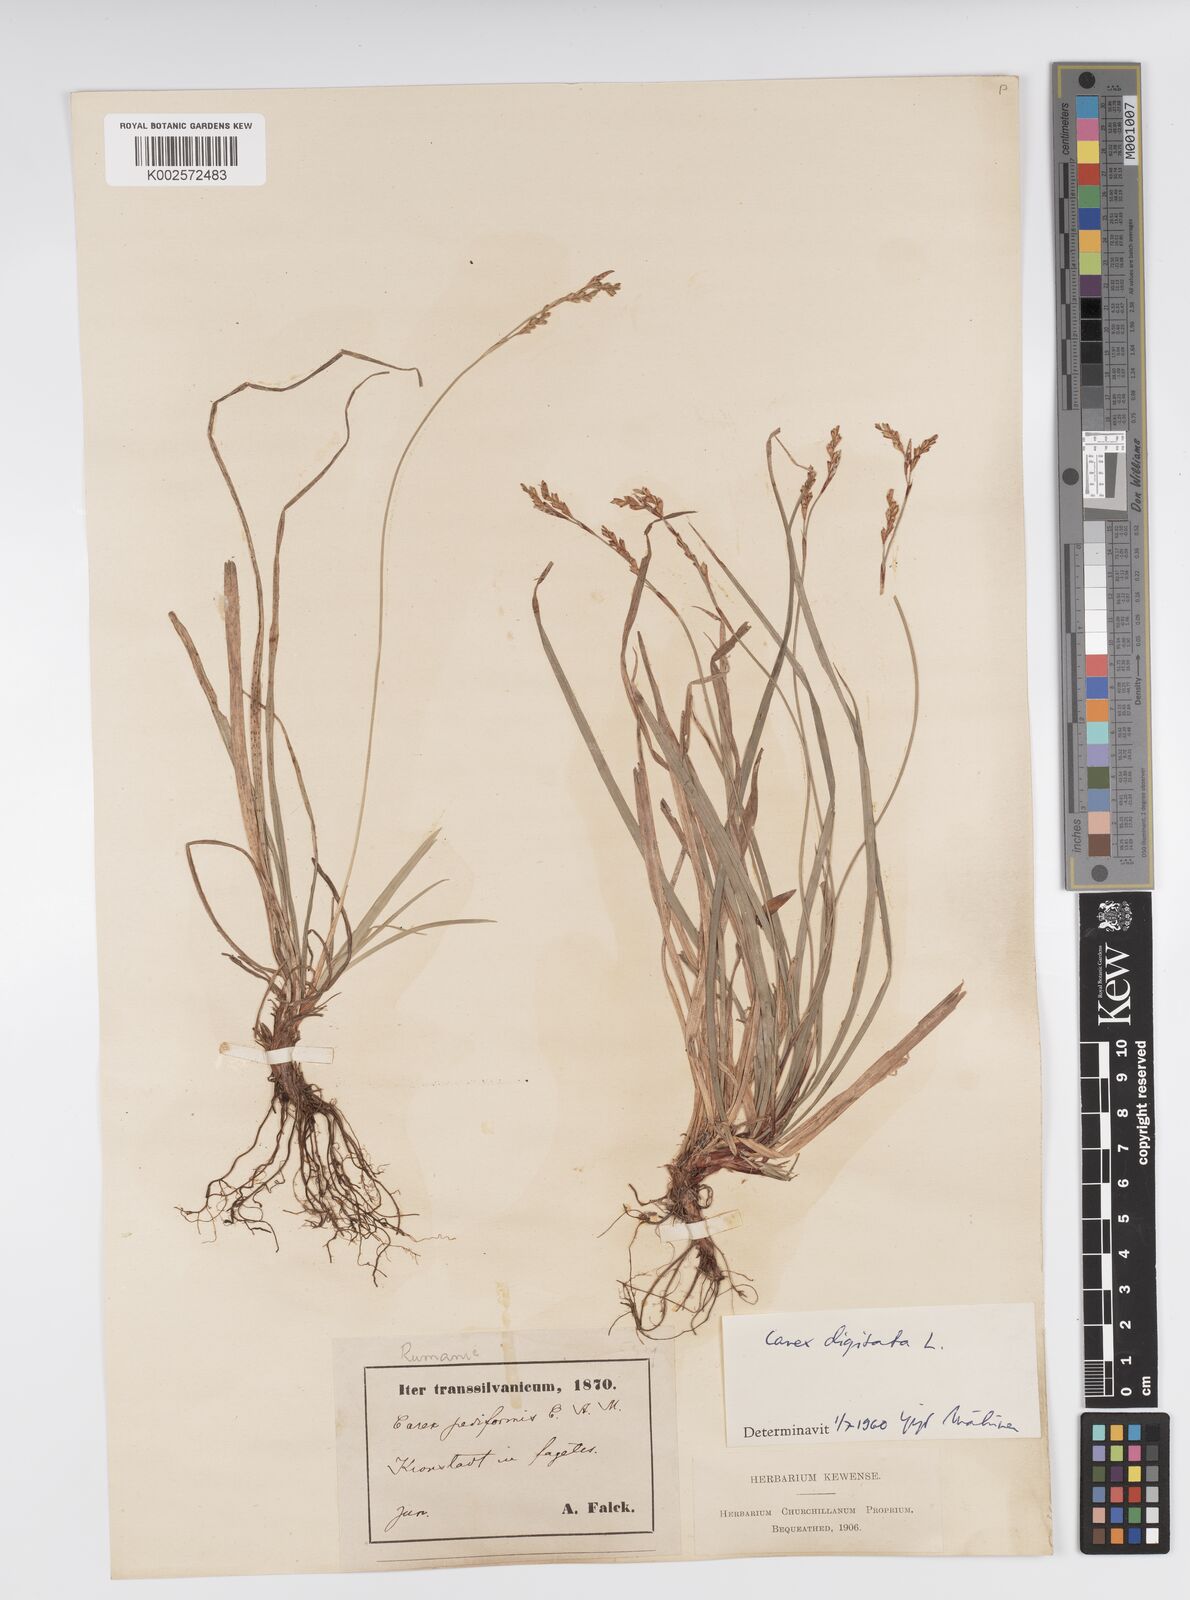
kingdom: Plantae
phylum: Tracheophyta
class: Liliopsida
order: Poales
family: Cyperaceae
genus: Carex
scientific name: Carex digitata
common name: Fingered sedge
